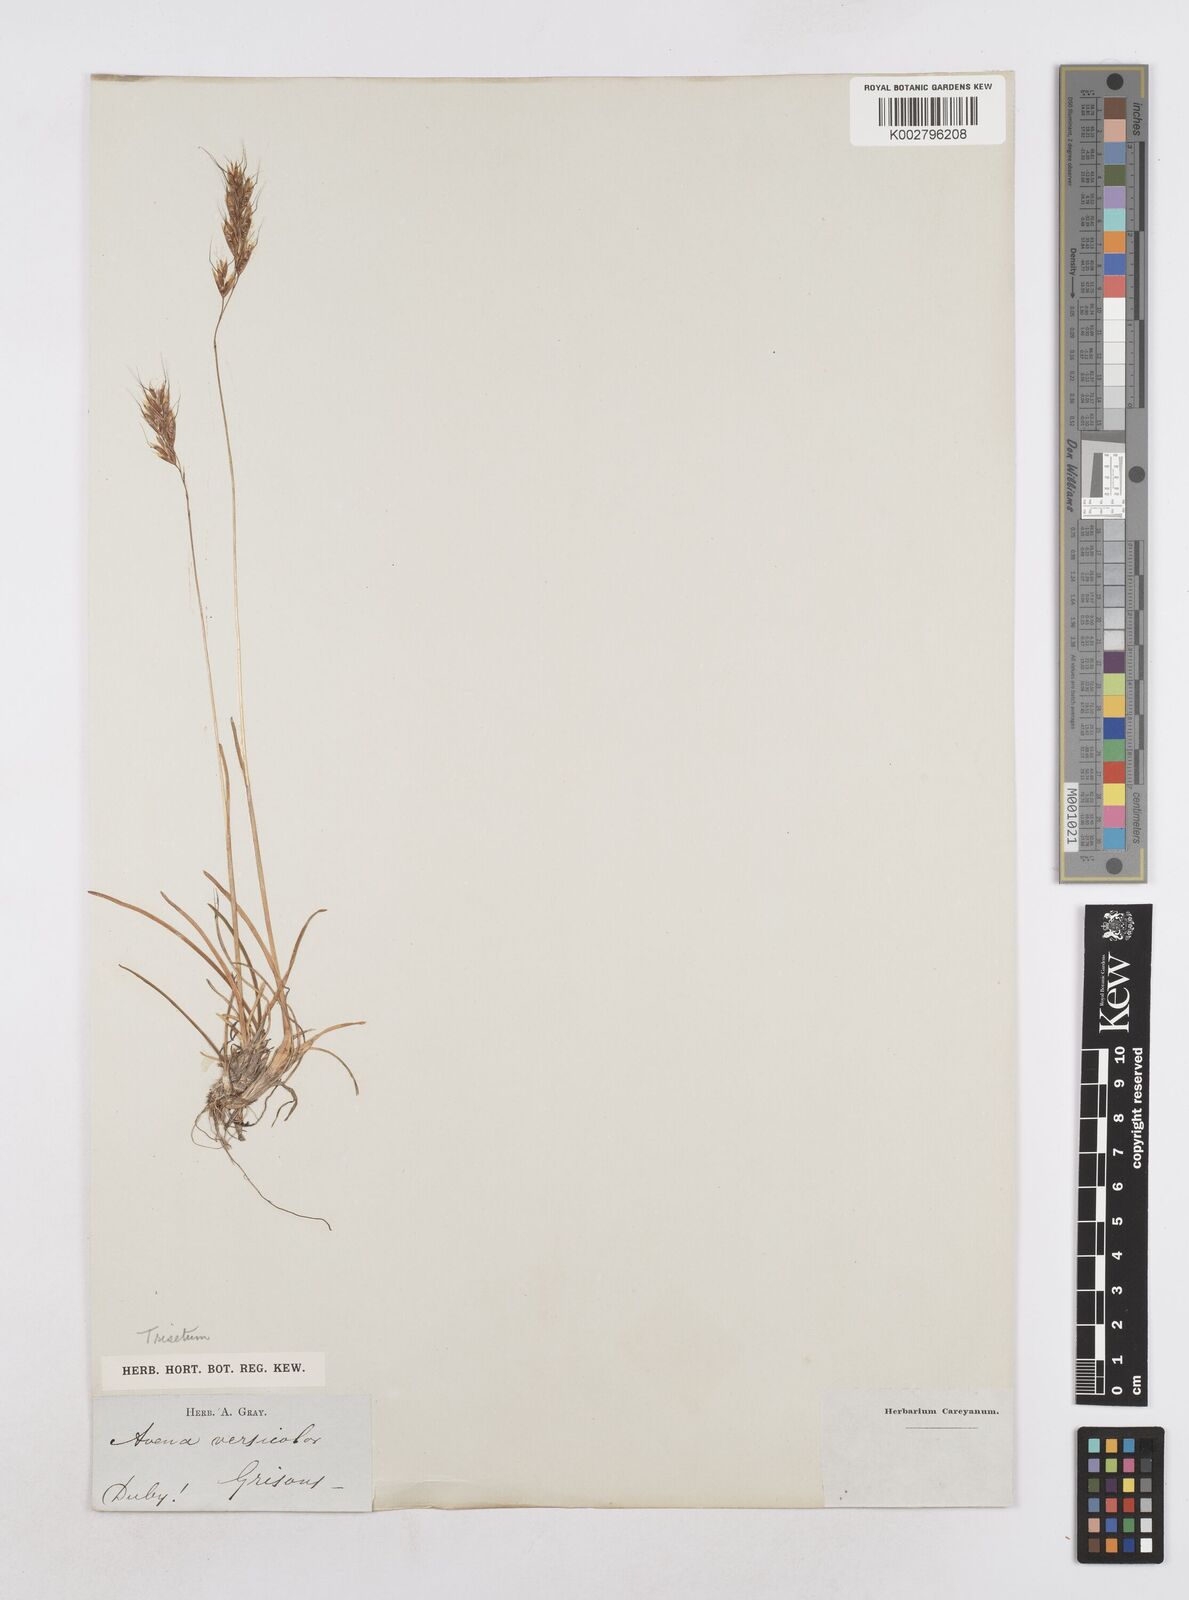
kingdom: Plantae
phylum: Tracheophyta
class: Liliopsida
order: Poales
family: Poaceae
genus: Helictotrichon
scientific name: Helictotrichon
